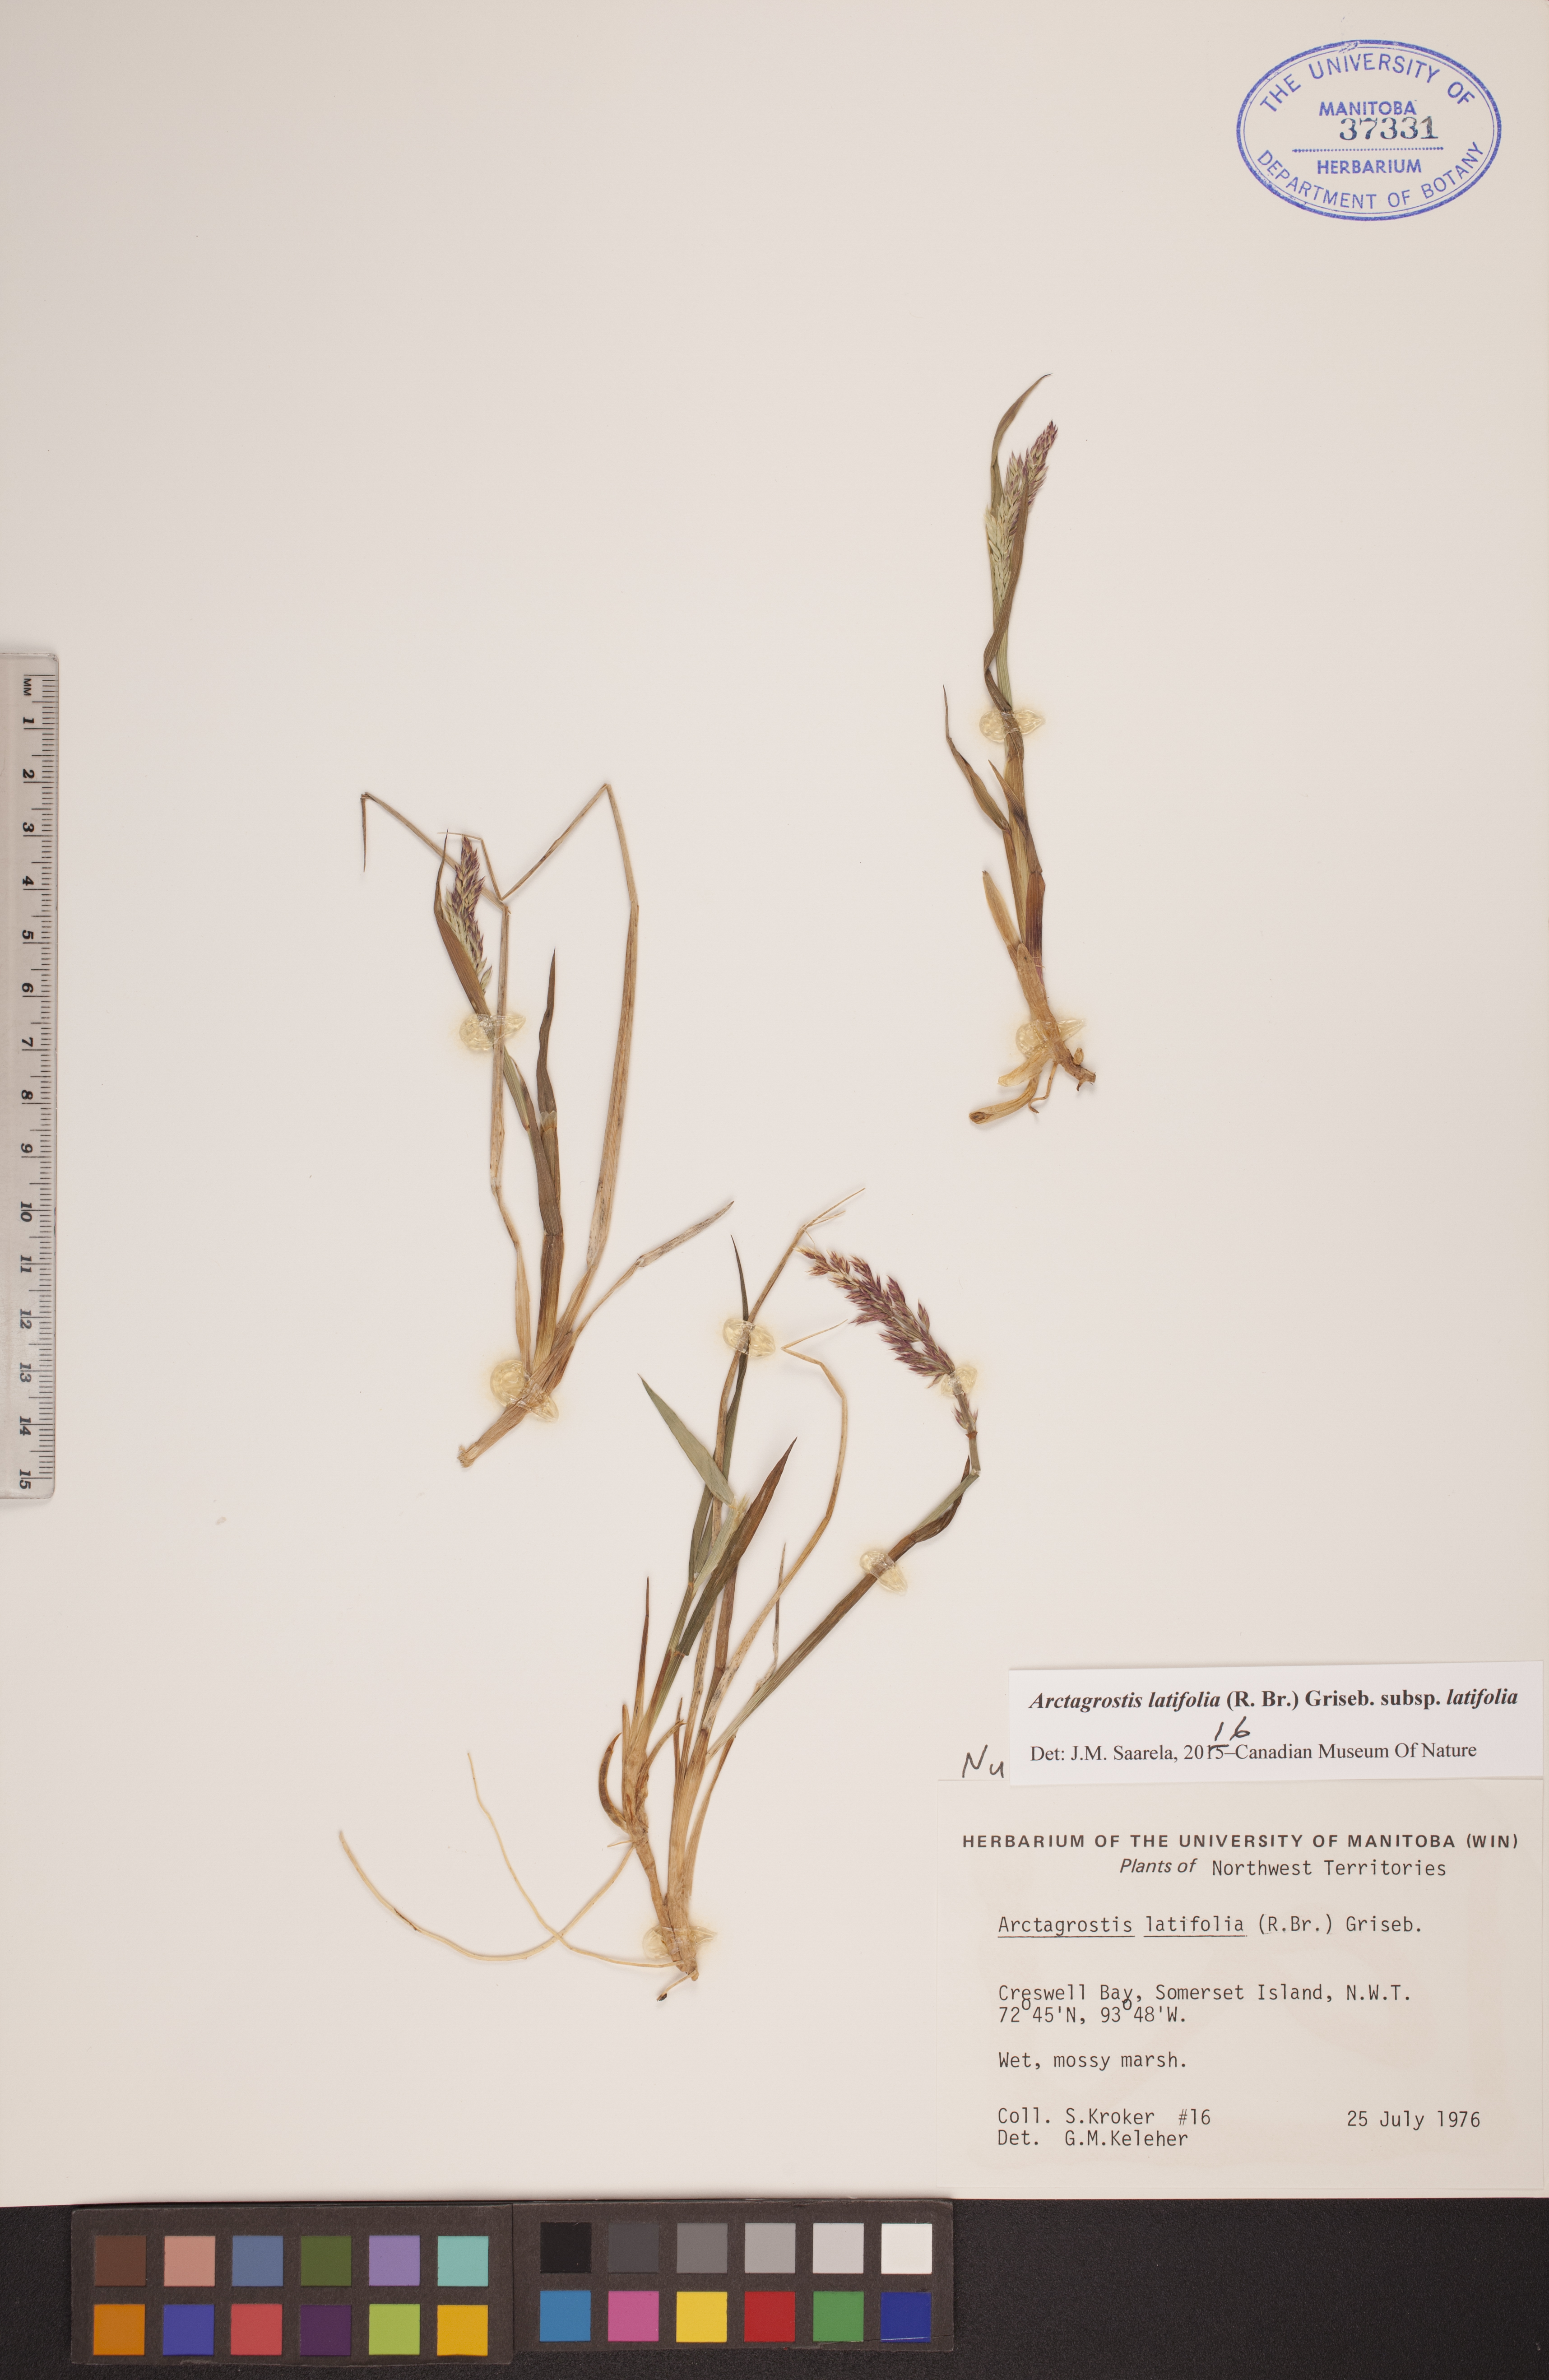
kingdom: Plantae
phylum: Tracheophyta
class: Liliopsida
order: Poales
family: Poaceae
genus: Arctagrostis
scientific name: Arctagrostis latifolia
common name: Arctic grass
